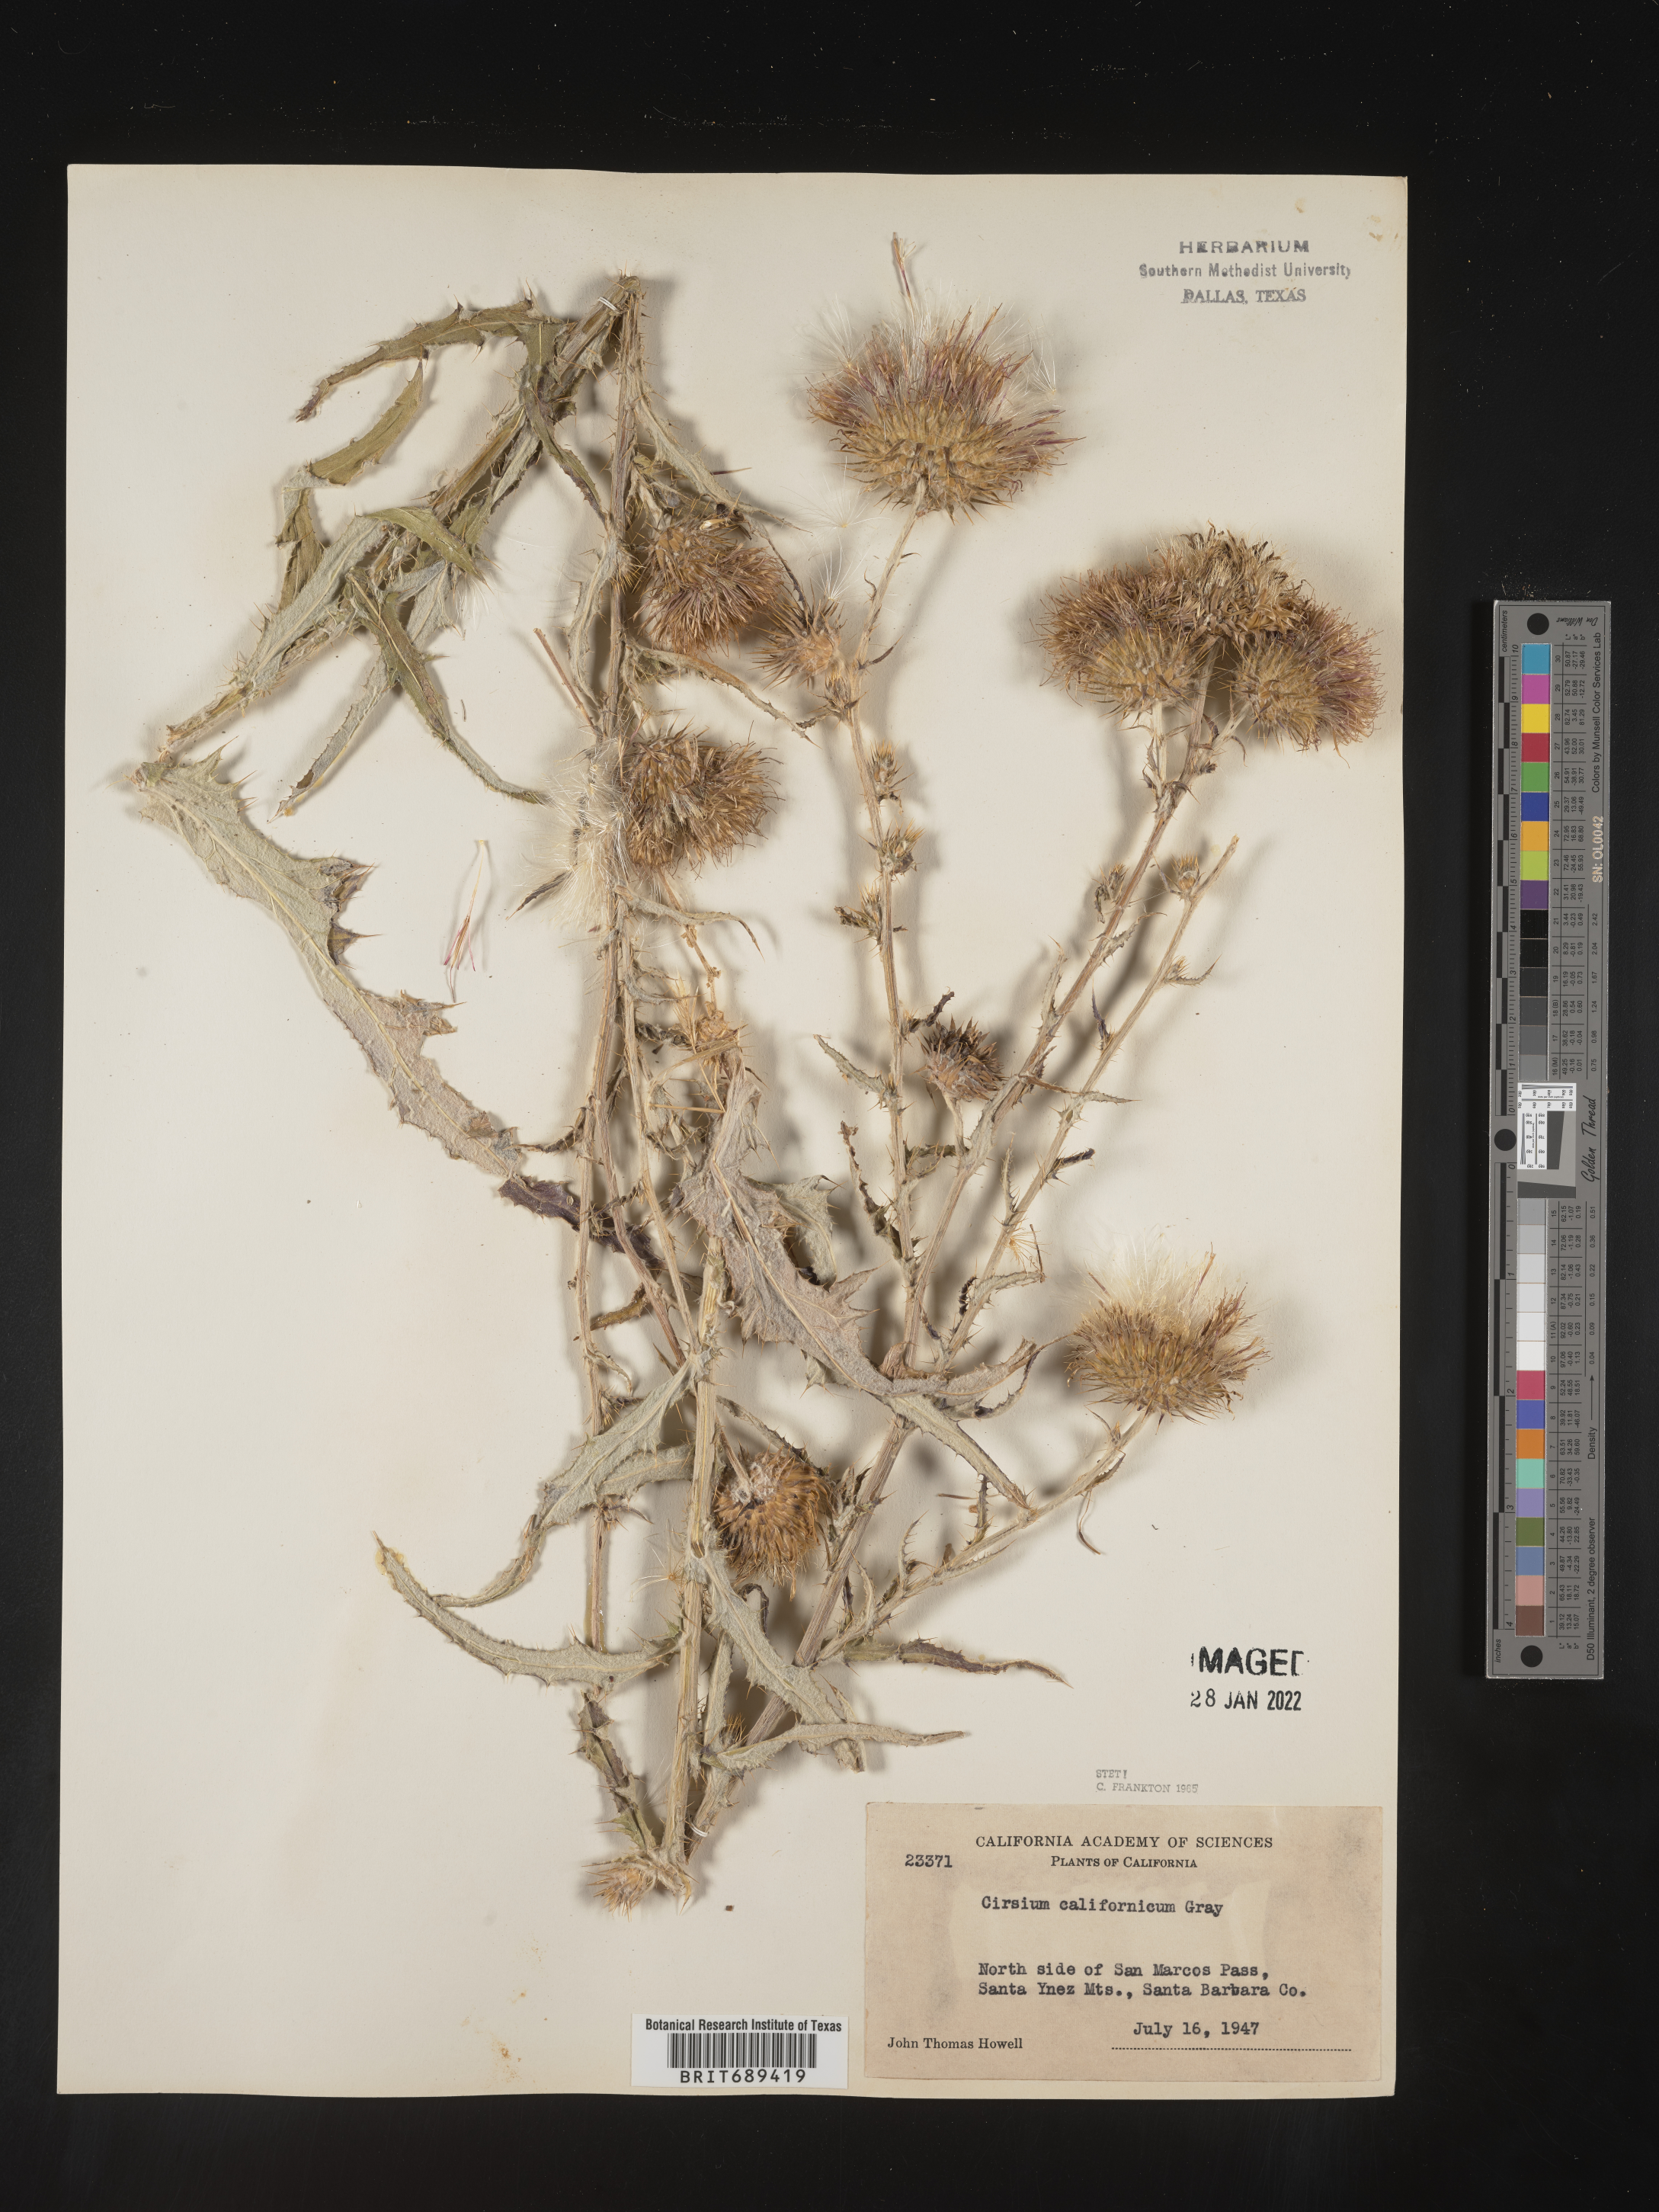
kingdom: Plantae
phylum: Tracheophyta
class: Magnoliopsida
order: Asterales
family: Asteraceae
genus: Cirsium
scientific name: Cirsium
